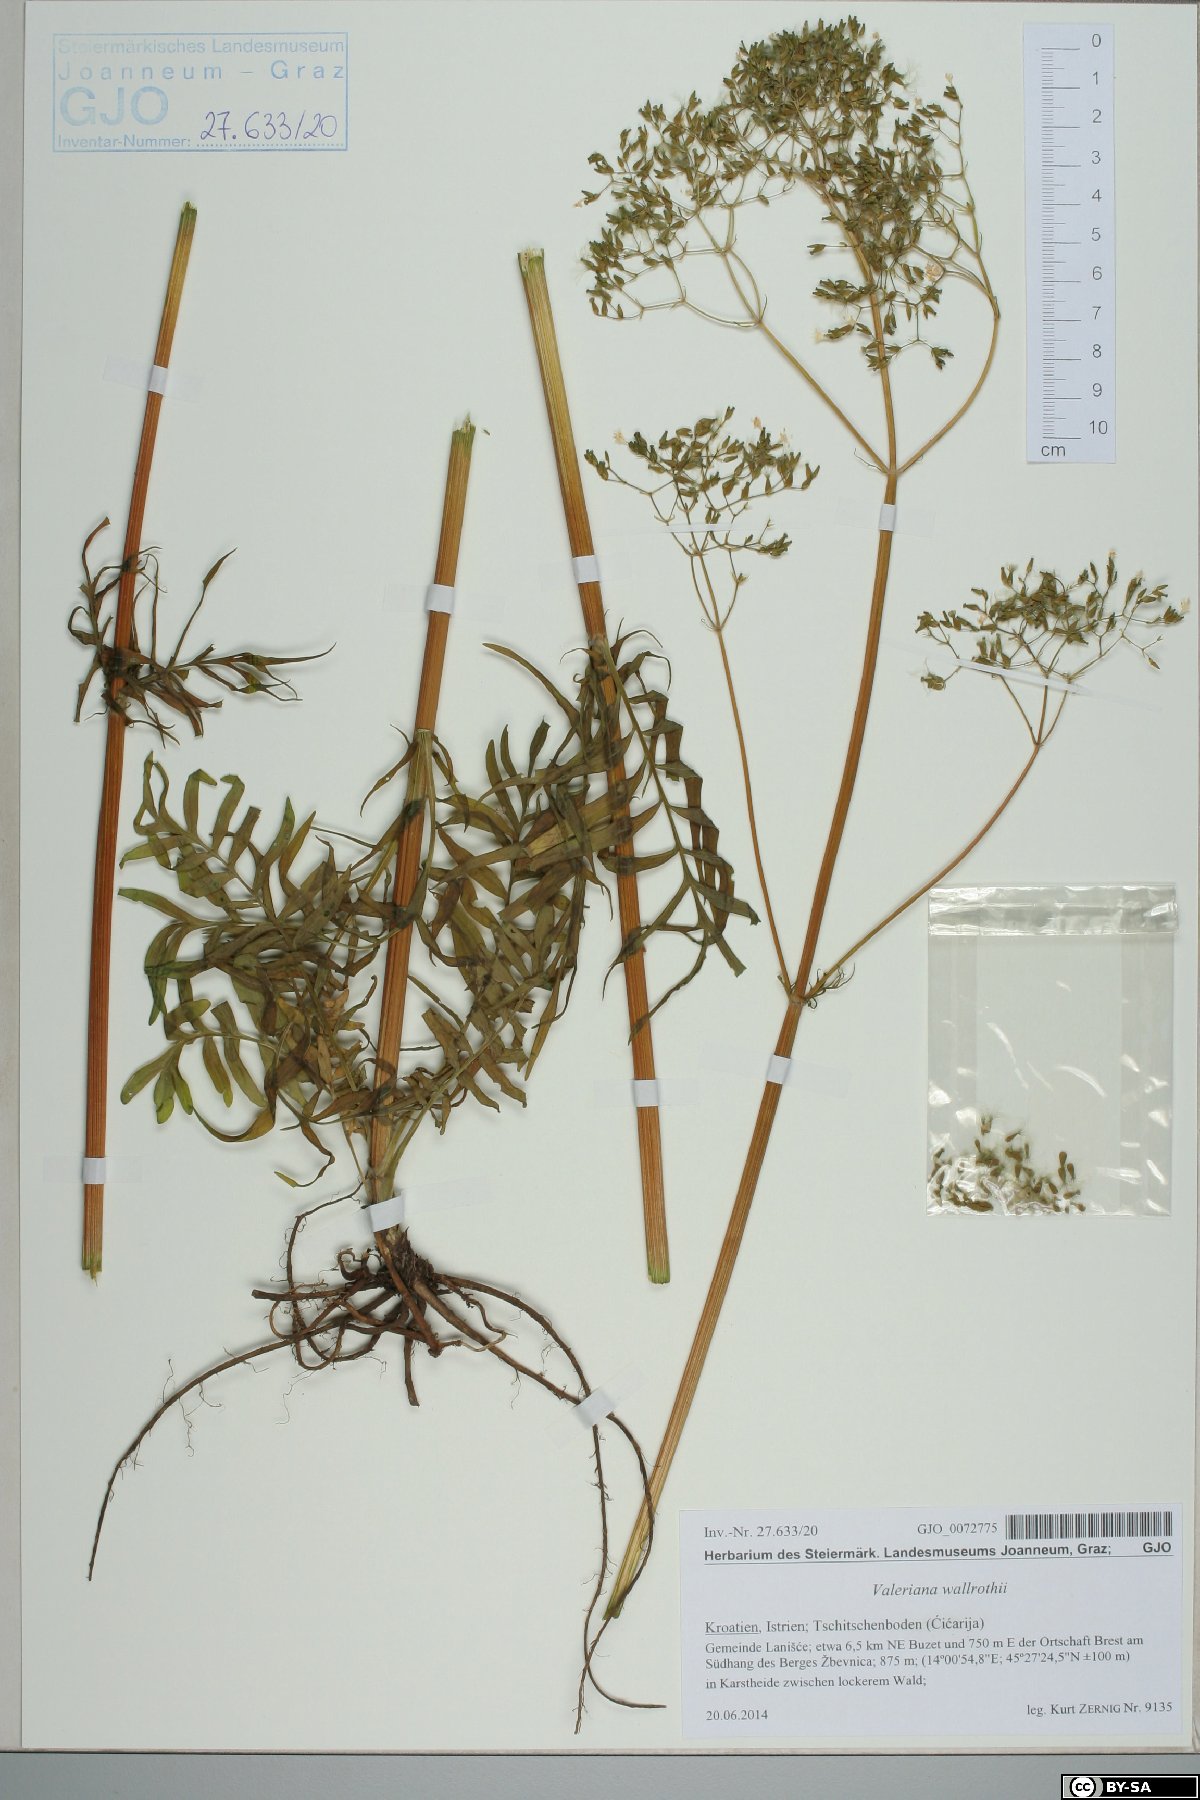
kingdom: Plantae
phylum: Tracheophyta
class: Magnoliopsida
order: Dipsacales
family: Caprifoliaceae
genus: Valeriana
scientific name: Valeriana pratensis
